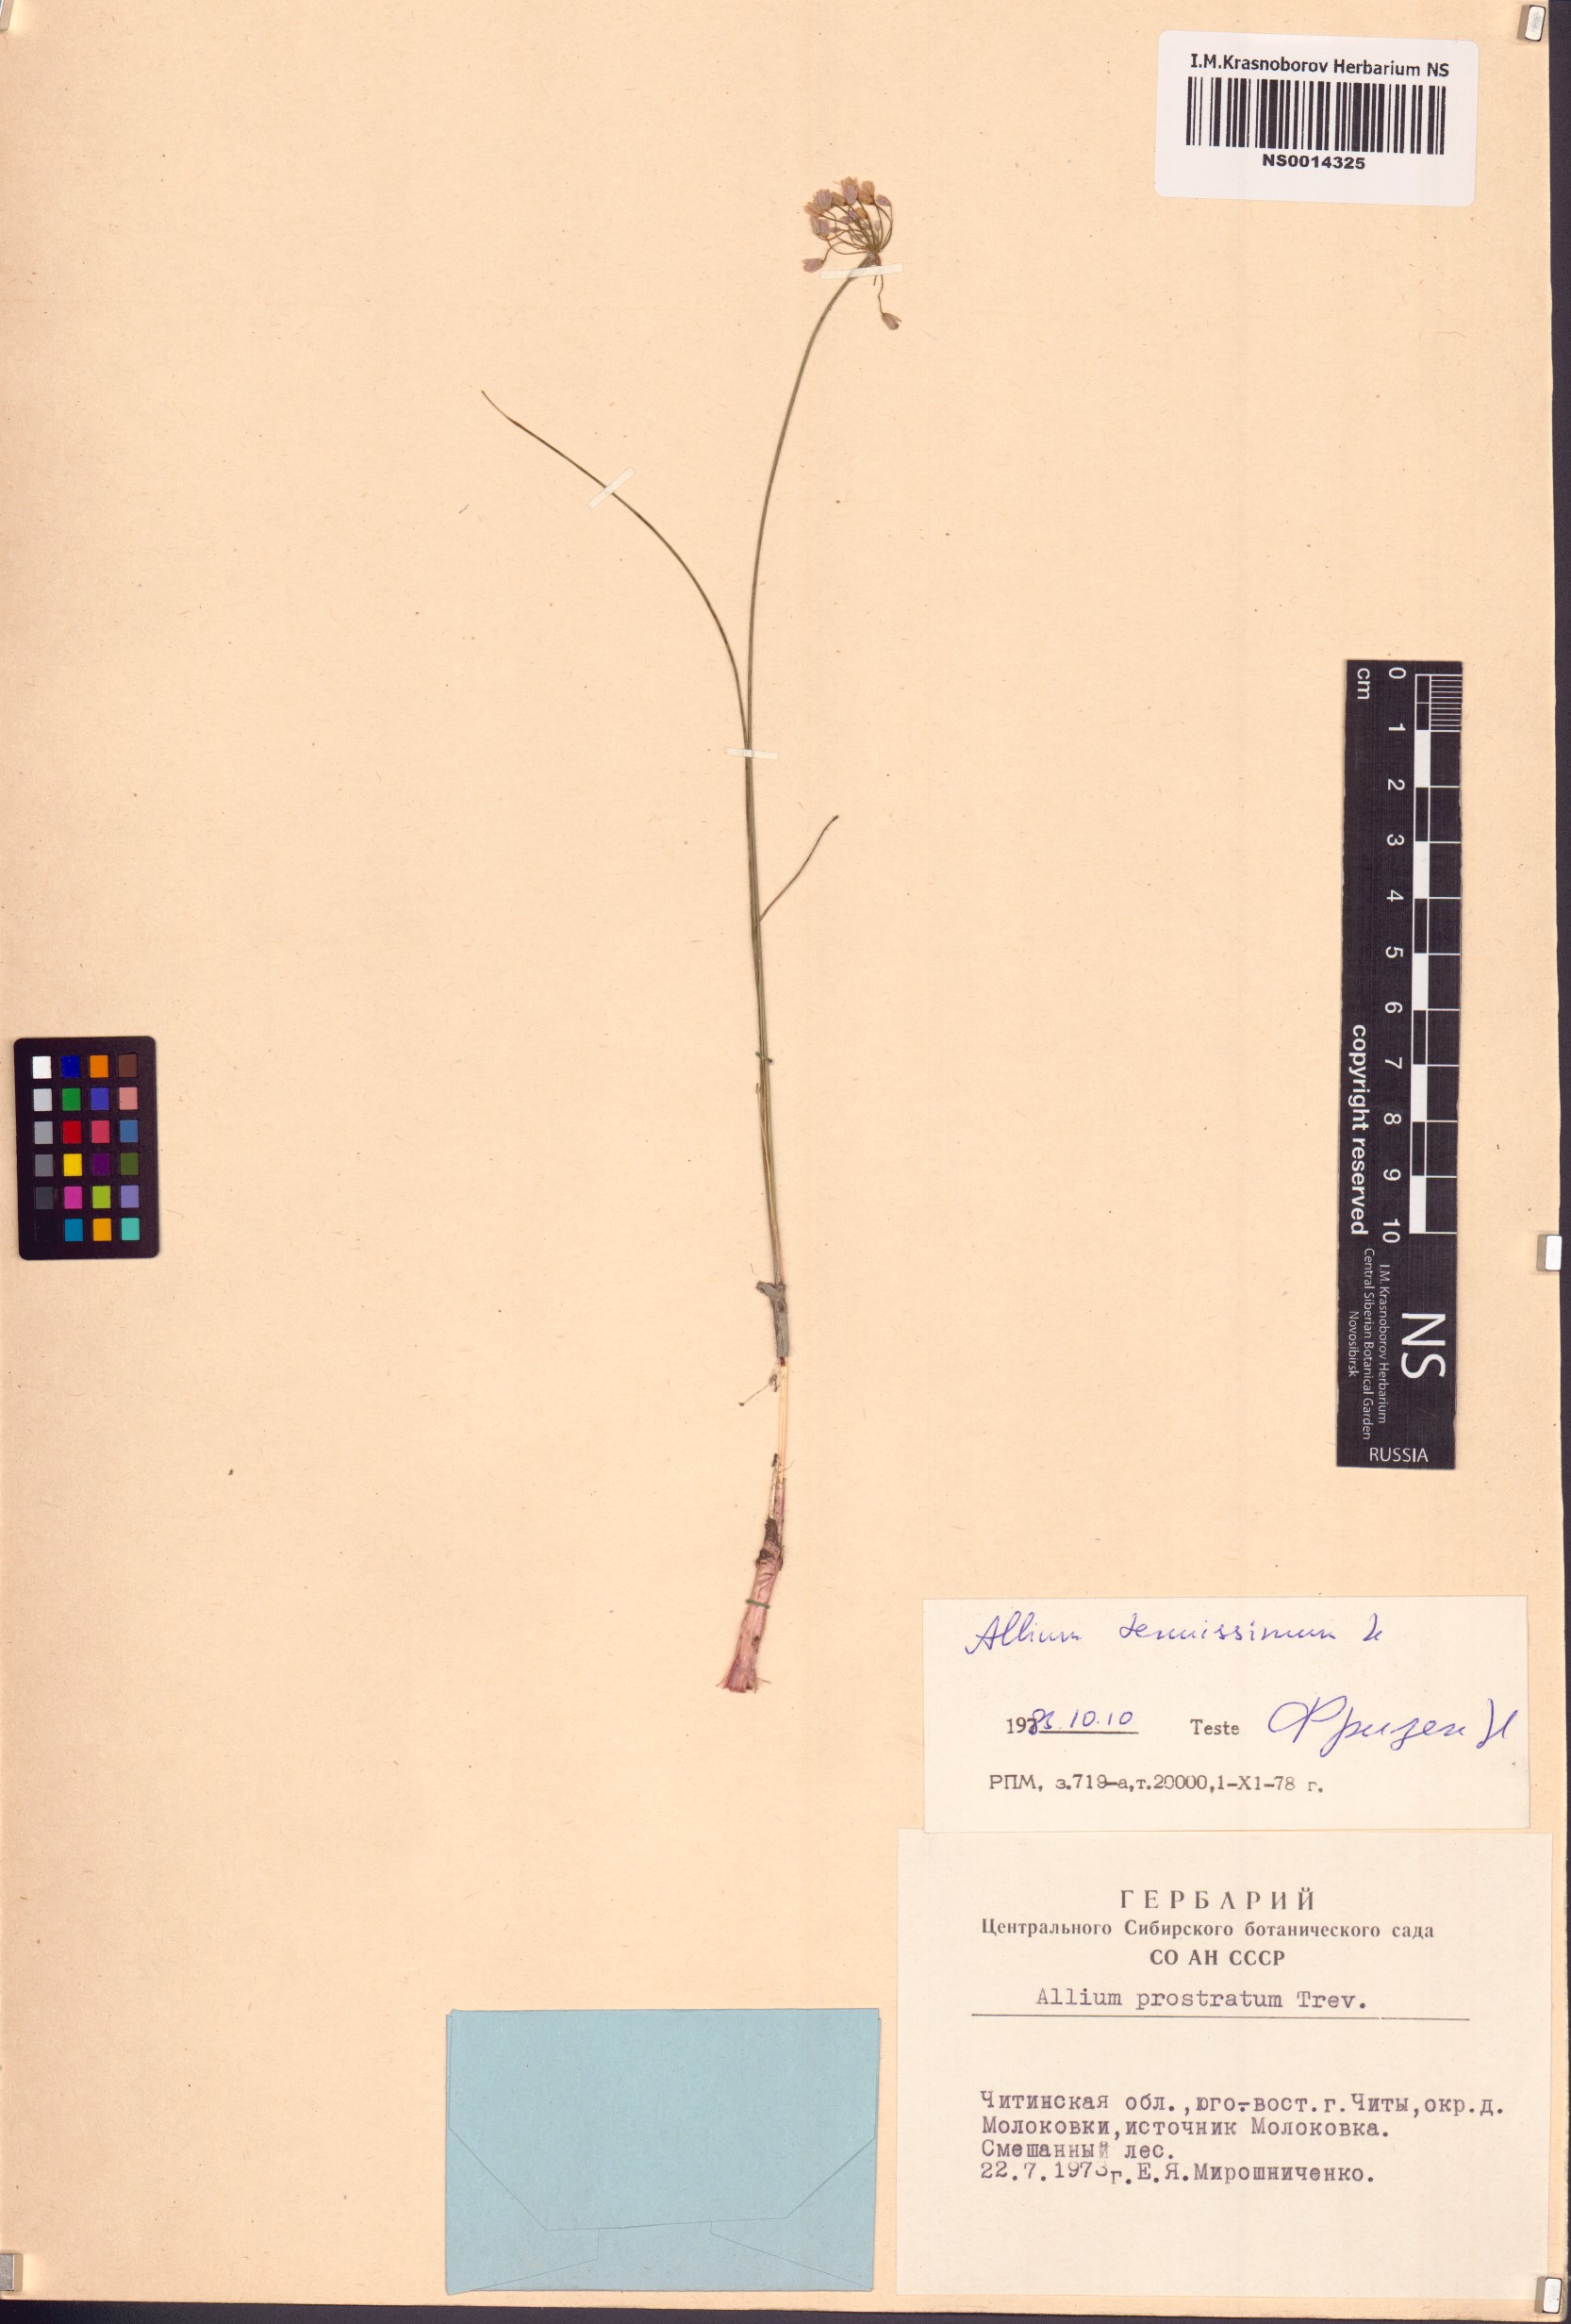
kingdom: Plantae
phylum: Tracheophyta
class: Liliopsida
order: Asparagales
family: Amaryllidaceae
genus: Allium
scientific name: Allium tenuissimum
